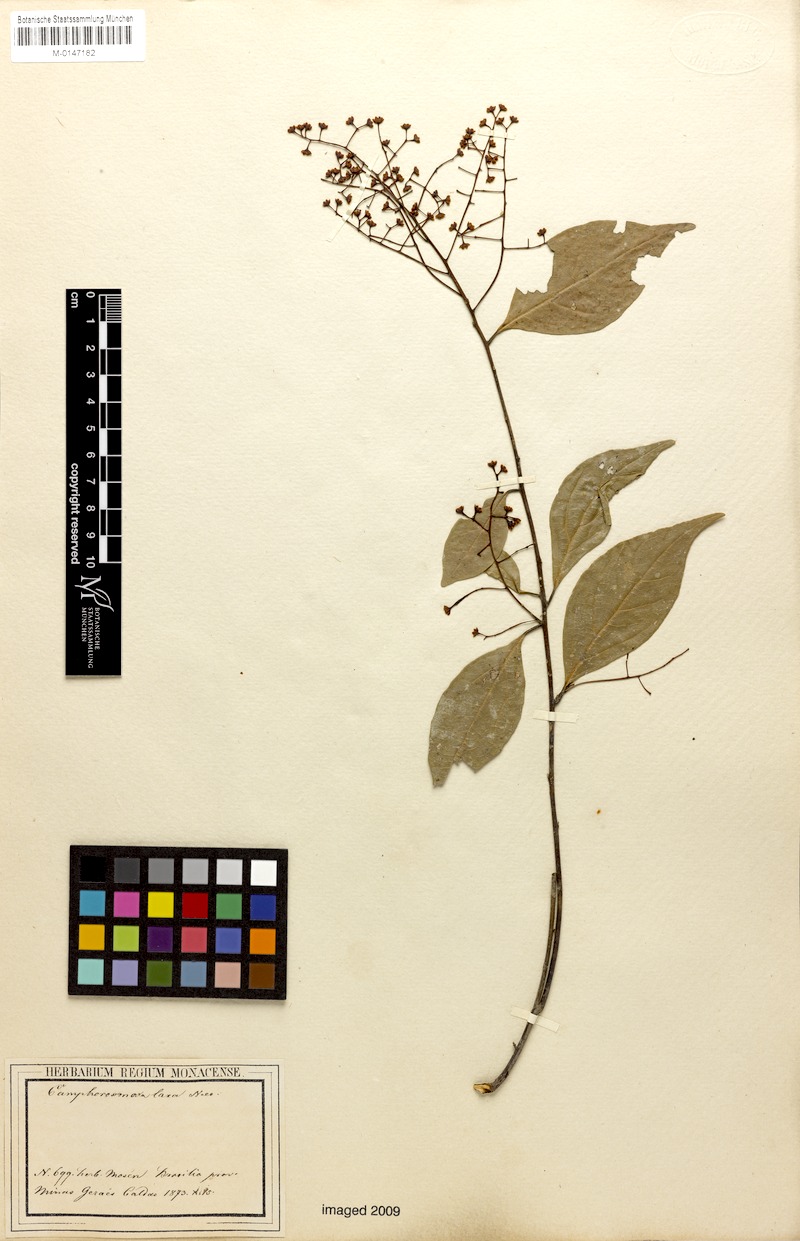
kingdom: Plantae
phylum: Tracheophyta
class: Magnoliopsida
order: Laurales
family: Lauraceae
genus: Ocotea
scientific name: Ocotea laxa
